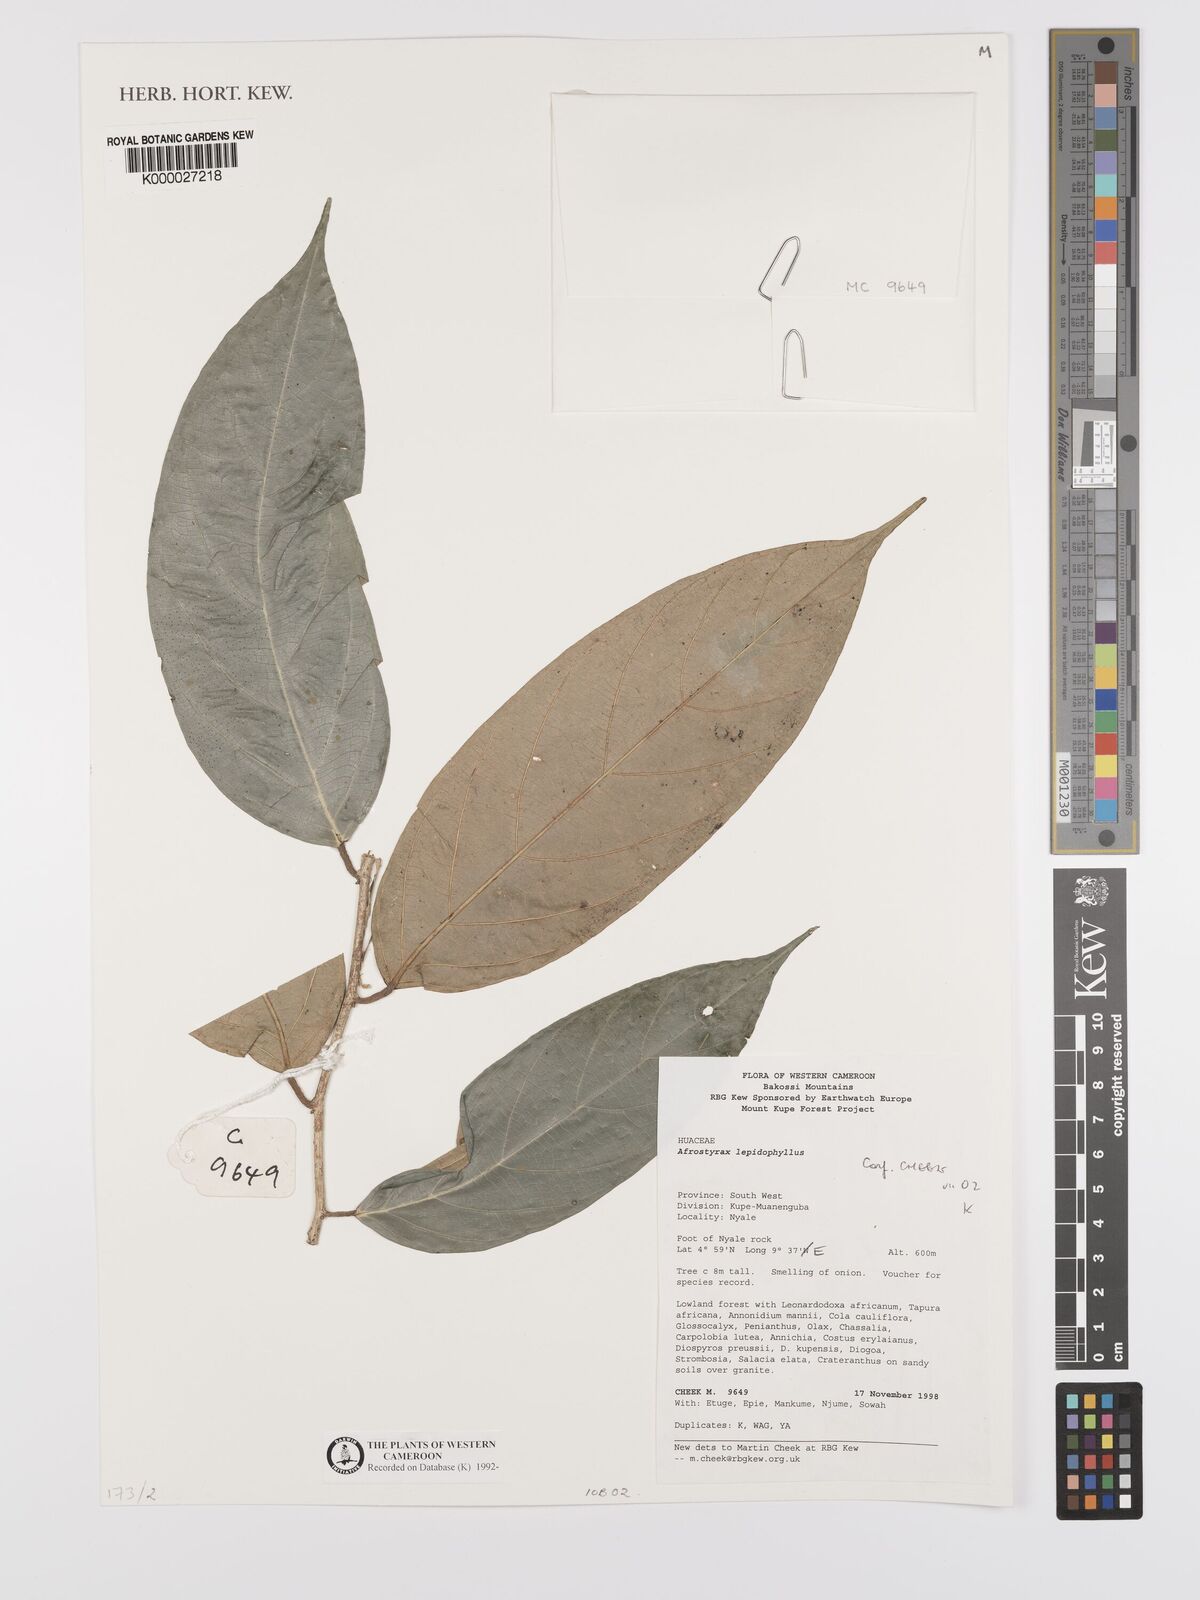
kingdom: Plantae
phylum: Tracheophyta
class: Magnoliopsida
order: Oxalidales
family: Huaceae
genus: Afrostyrax
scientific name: Afrostyrax lepidophyllus
